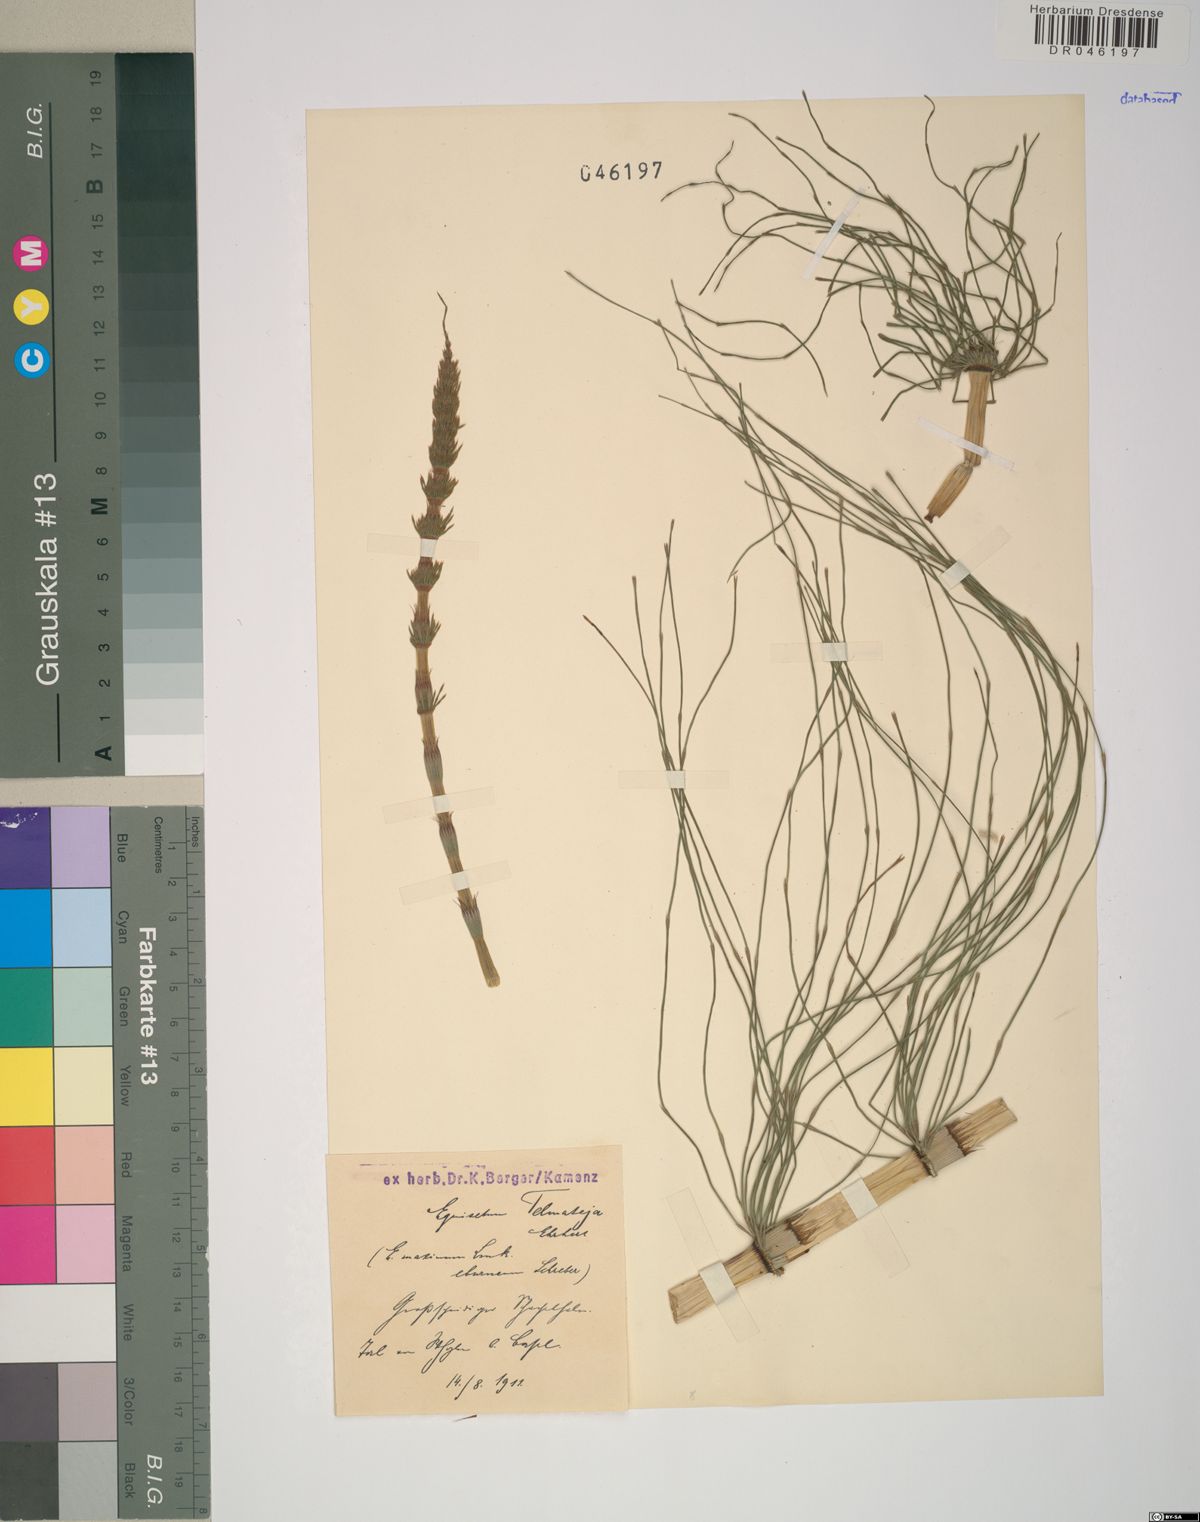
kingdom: Plantae
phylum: Tracheophyta
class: Polypodiopsida
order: Equisetales
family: Equisetaceae
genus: Equisetum
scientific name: Equisetum telmateia
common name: Great horsetail
